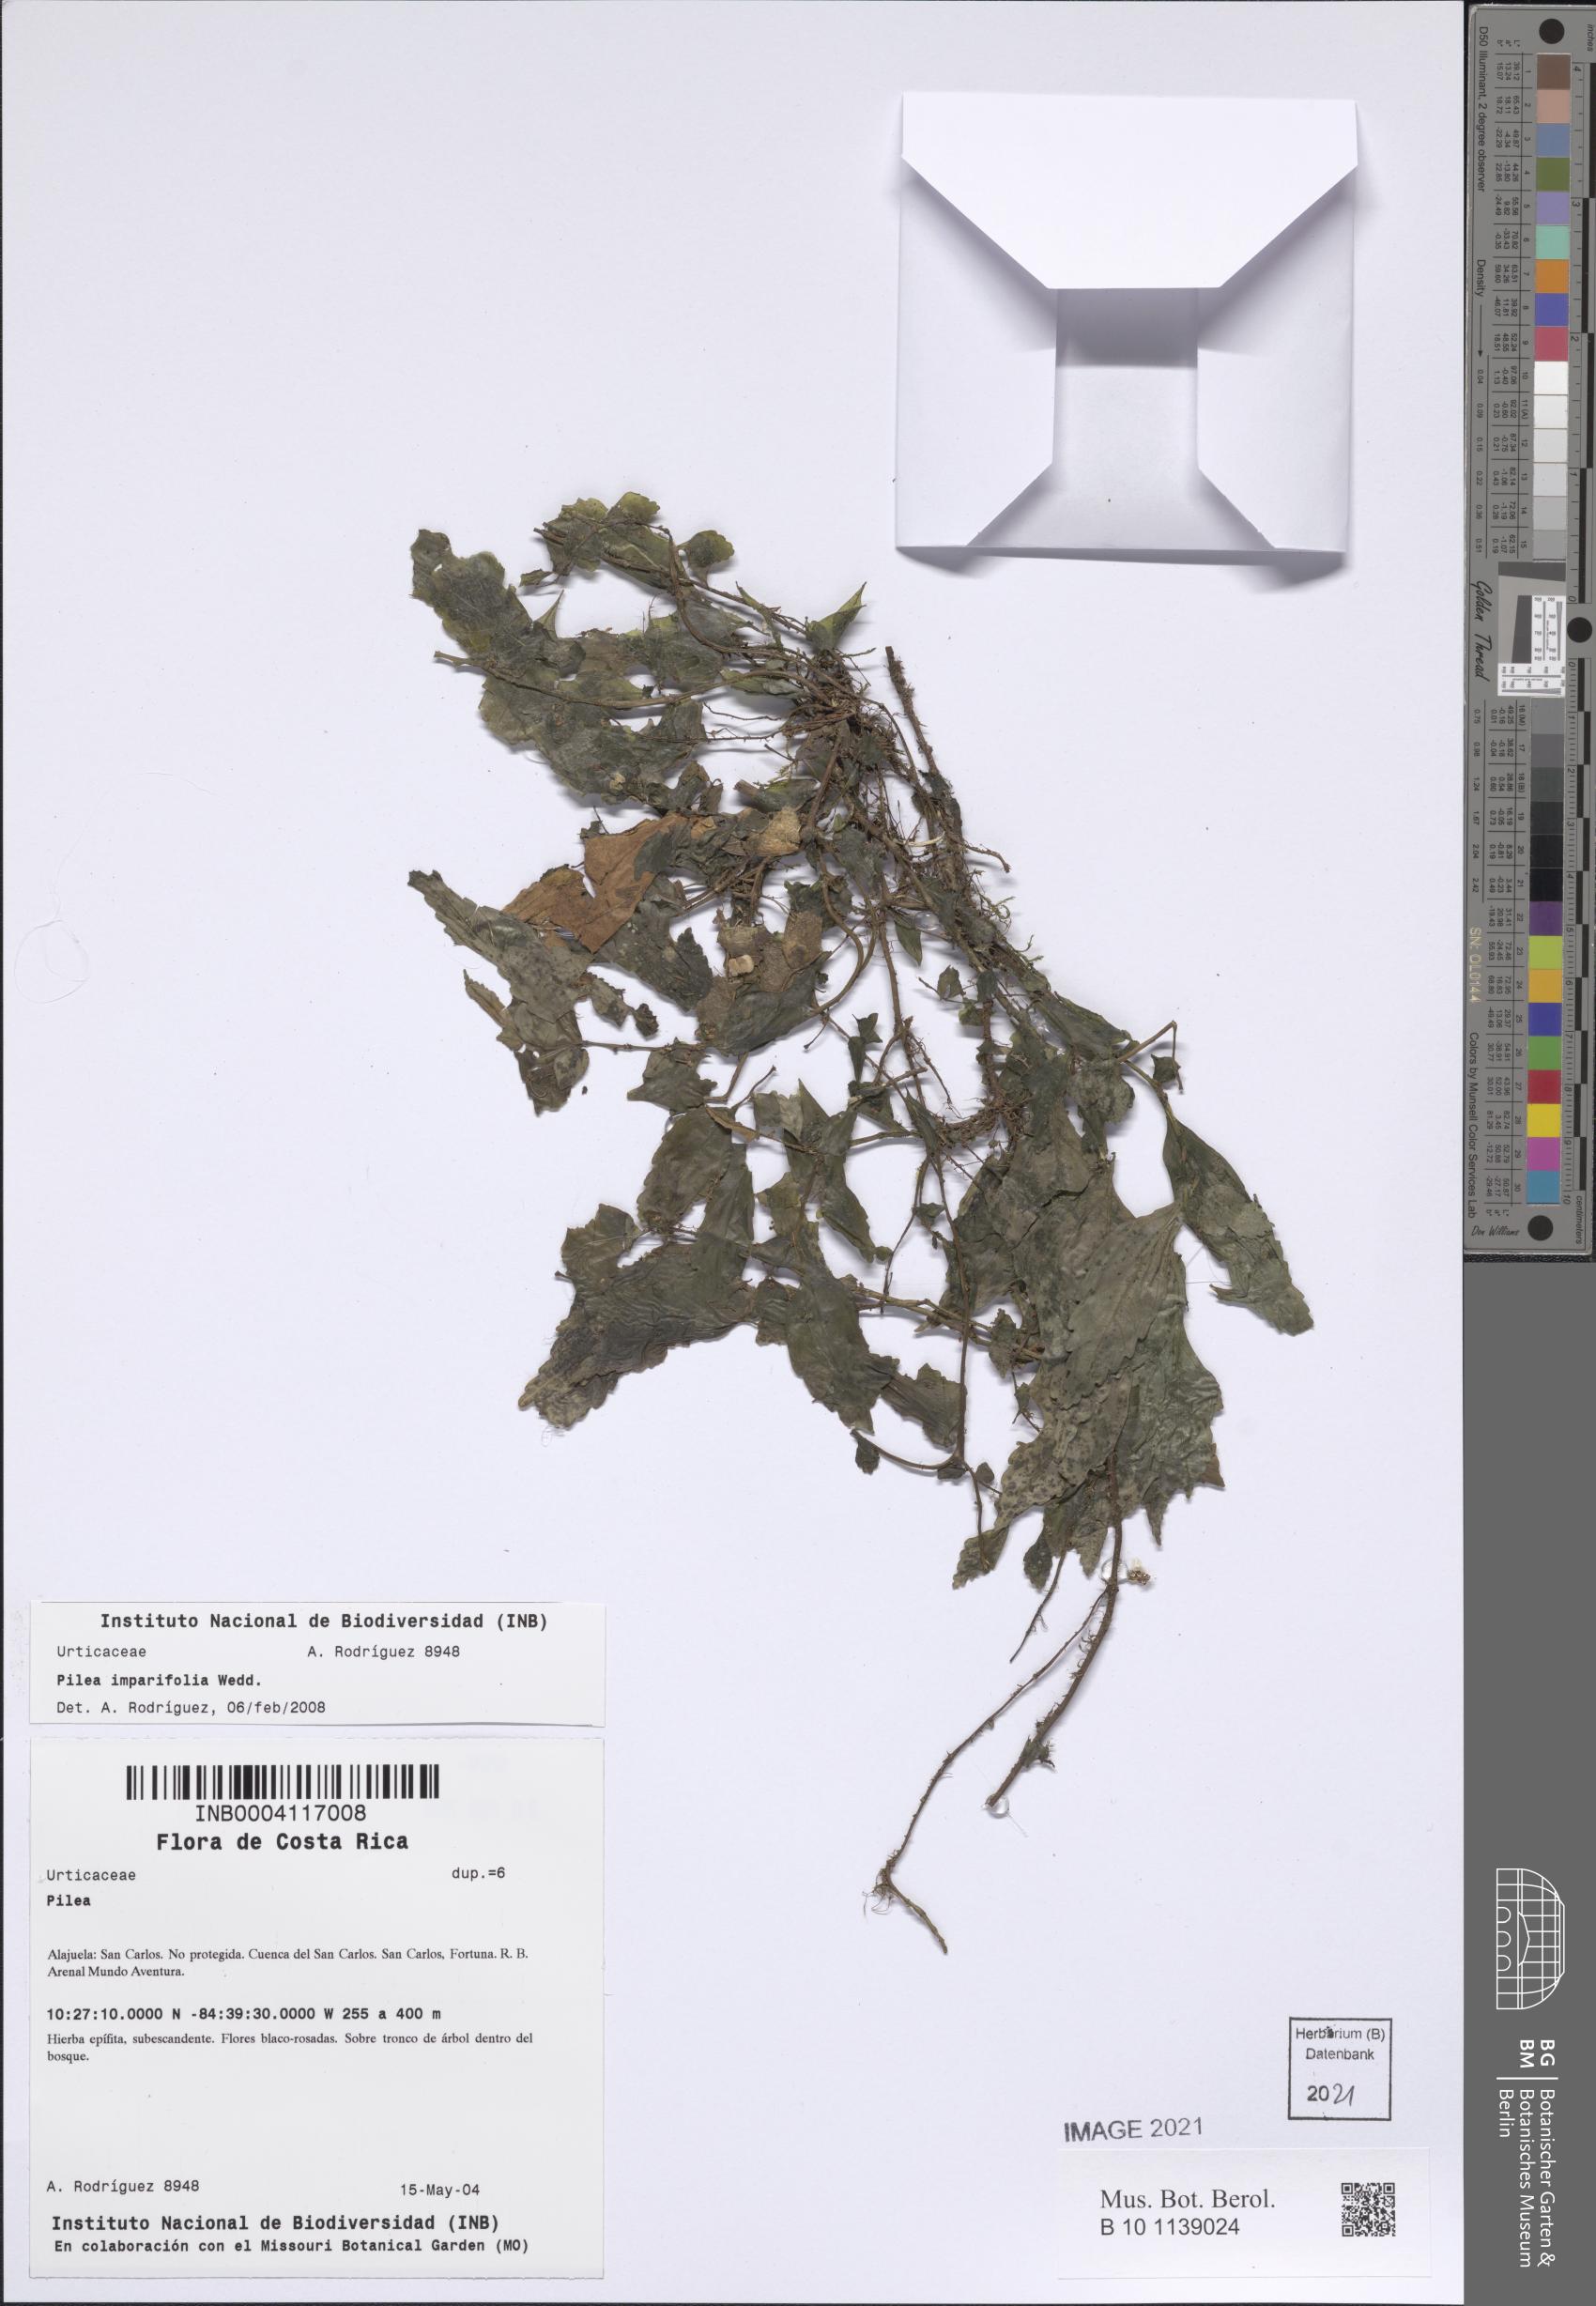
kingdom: Plantae
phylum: Tracheophyta
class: Magnoliopsida
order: Rosales
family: Urticaceae
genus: Pilea
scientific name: Pilea imparifolia
